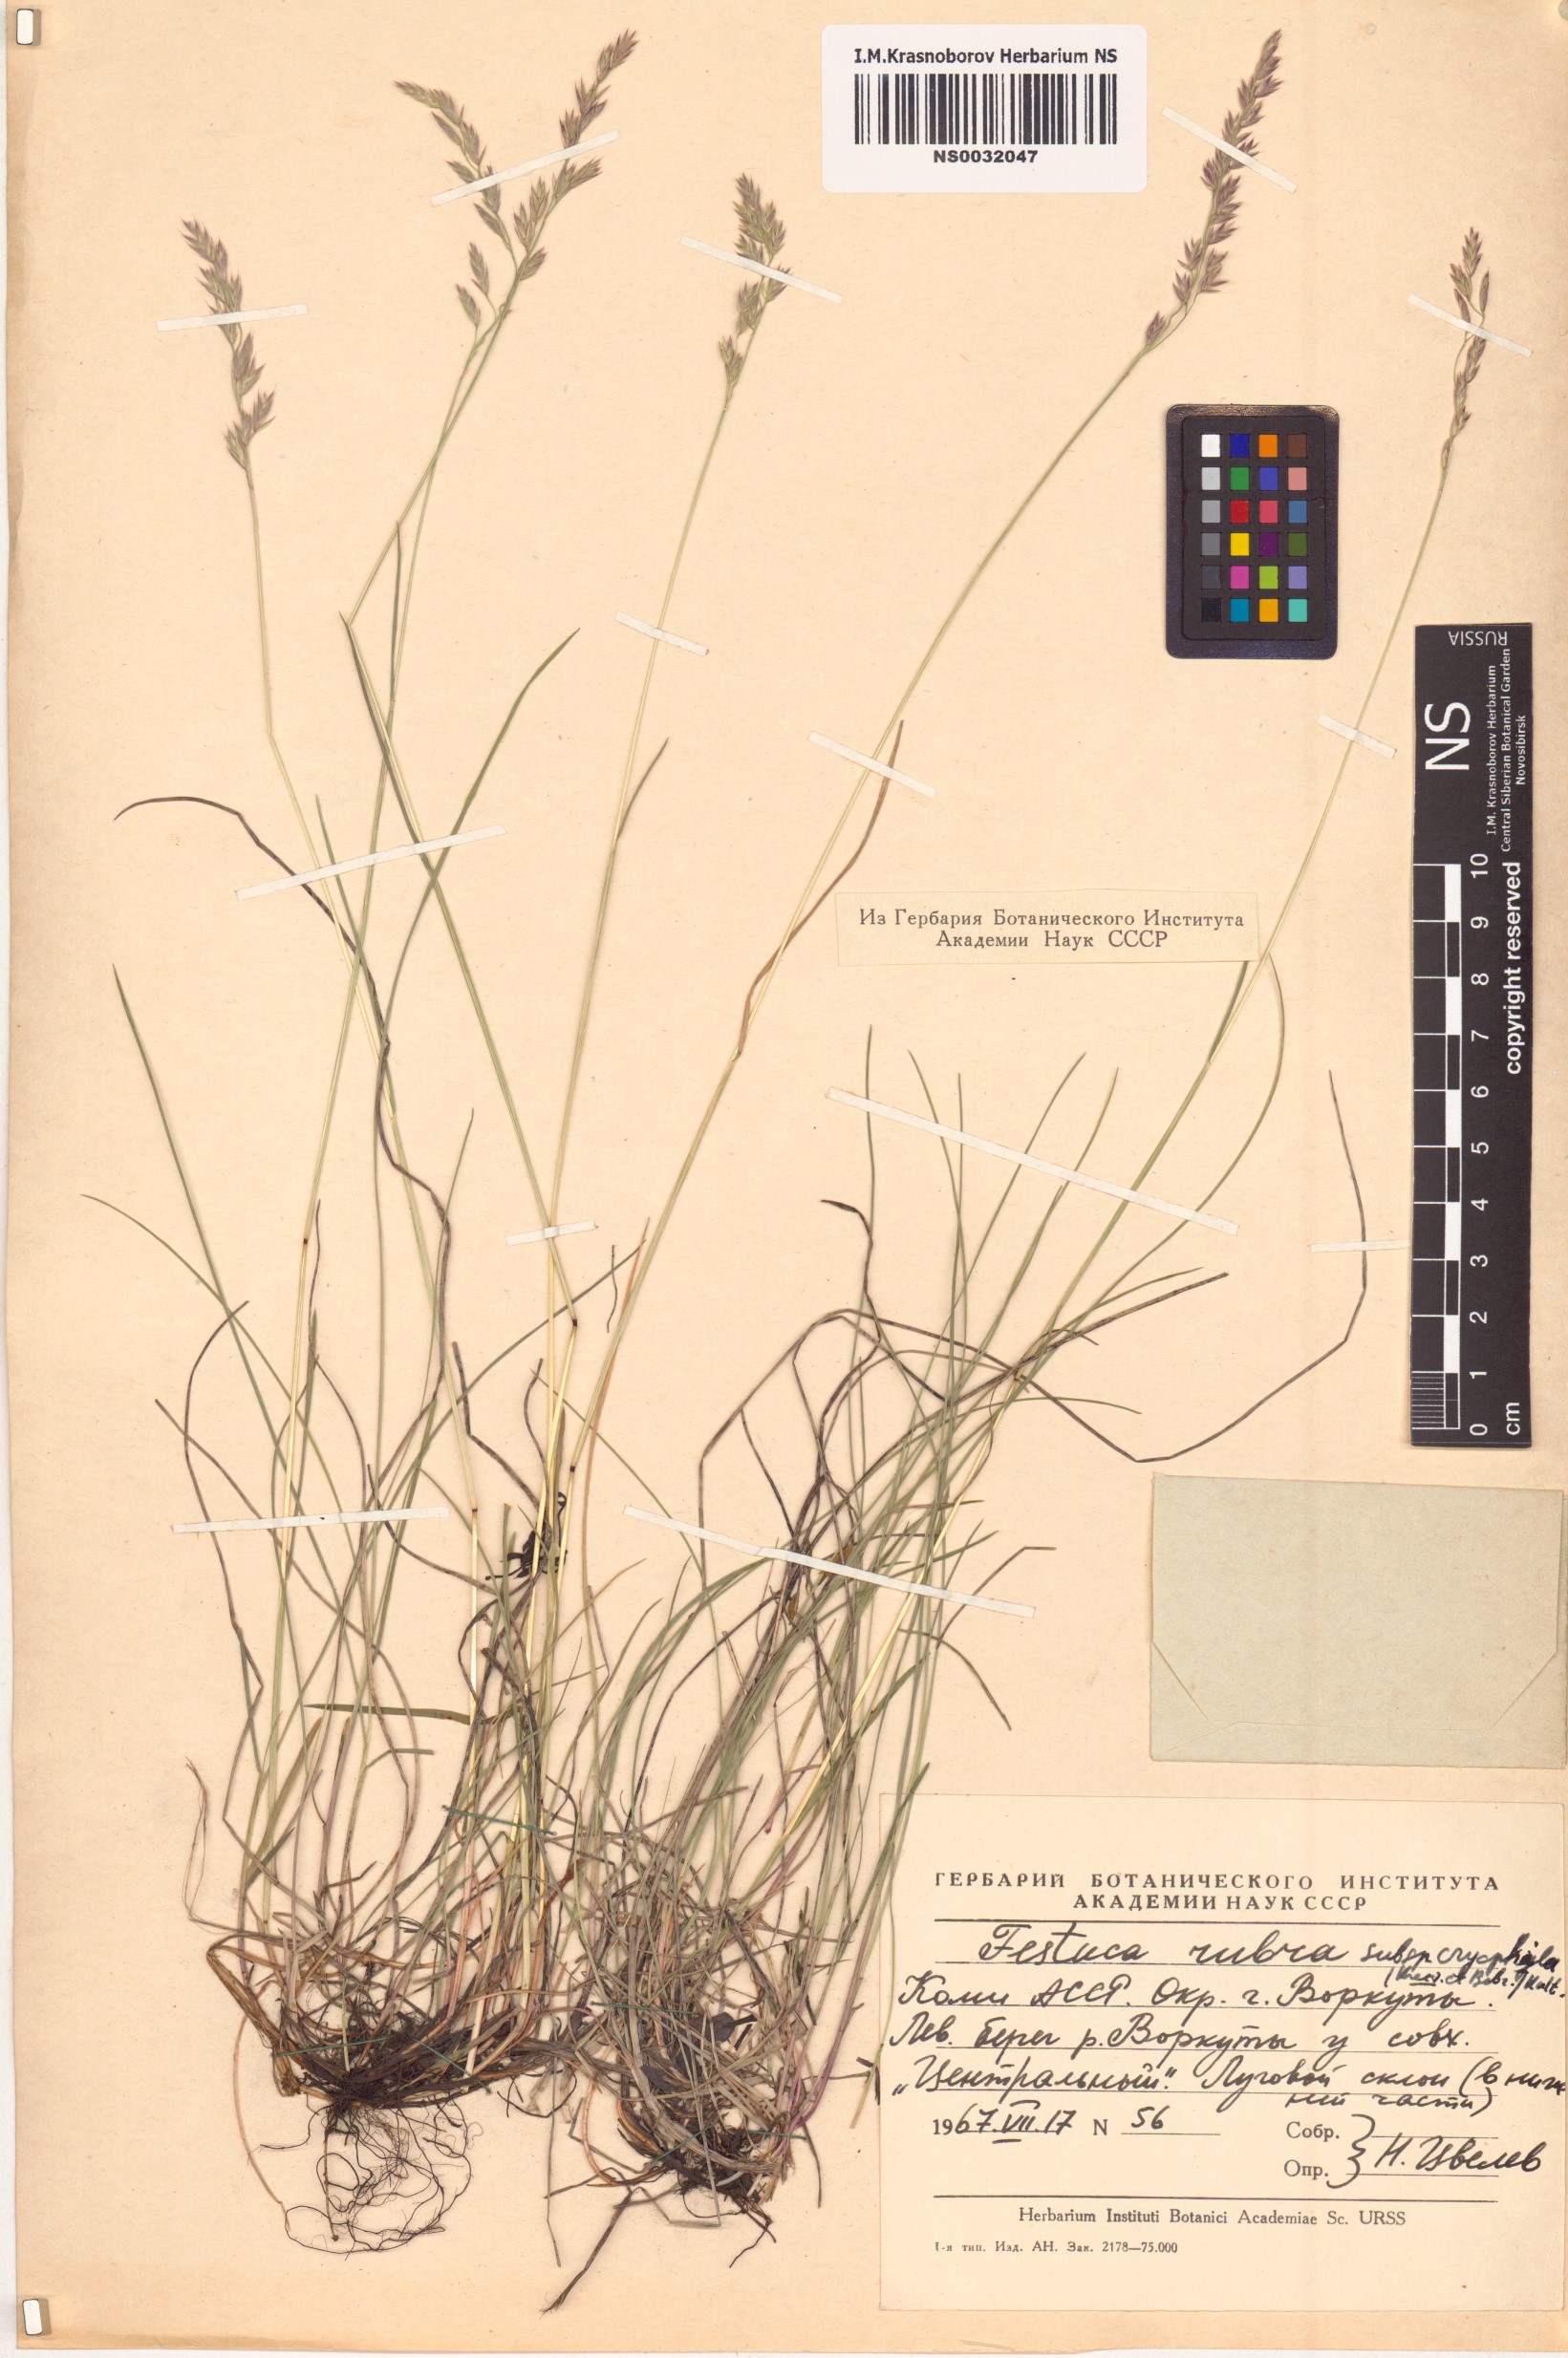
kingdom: Plantae
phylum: Tracheophyta
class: Liliopsida
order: Poales
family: Poaceae
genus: Festuca
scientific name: Festuca richardsonii
